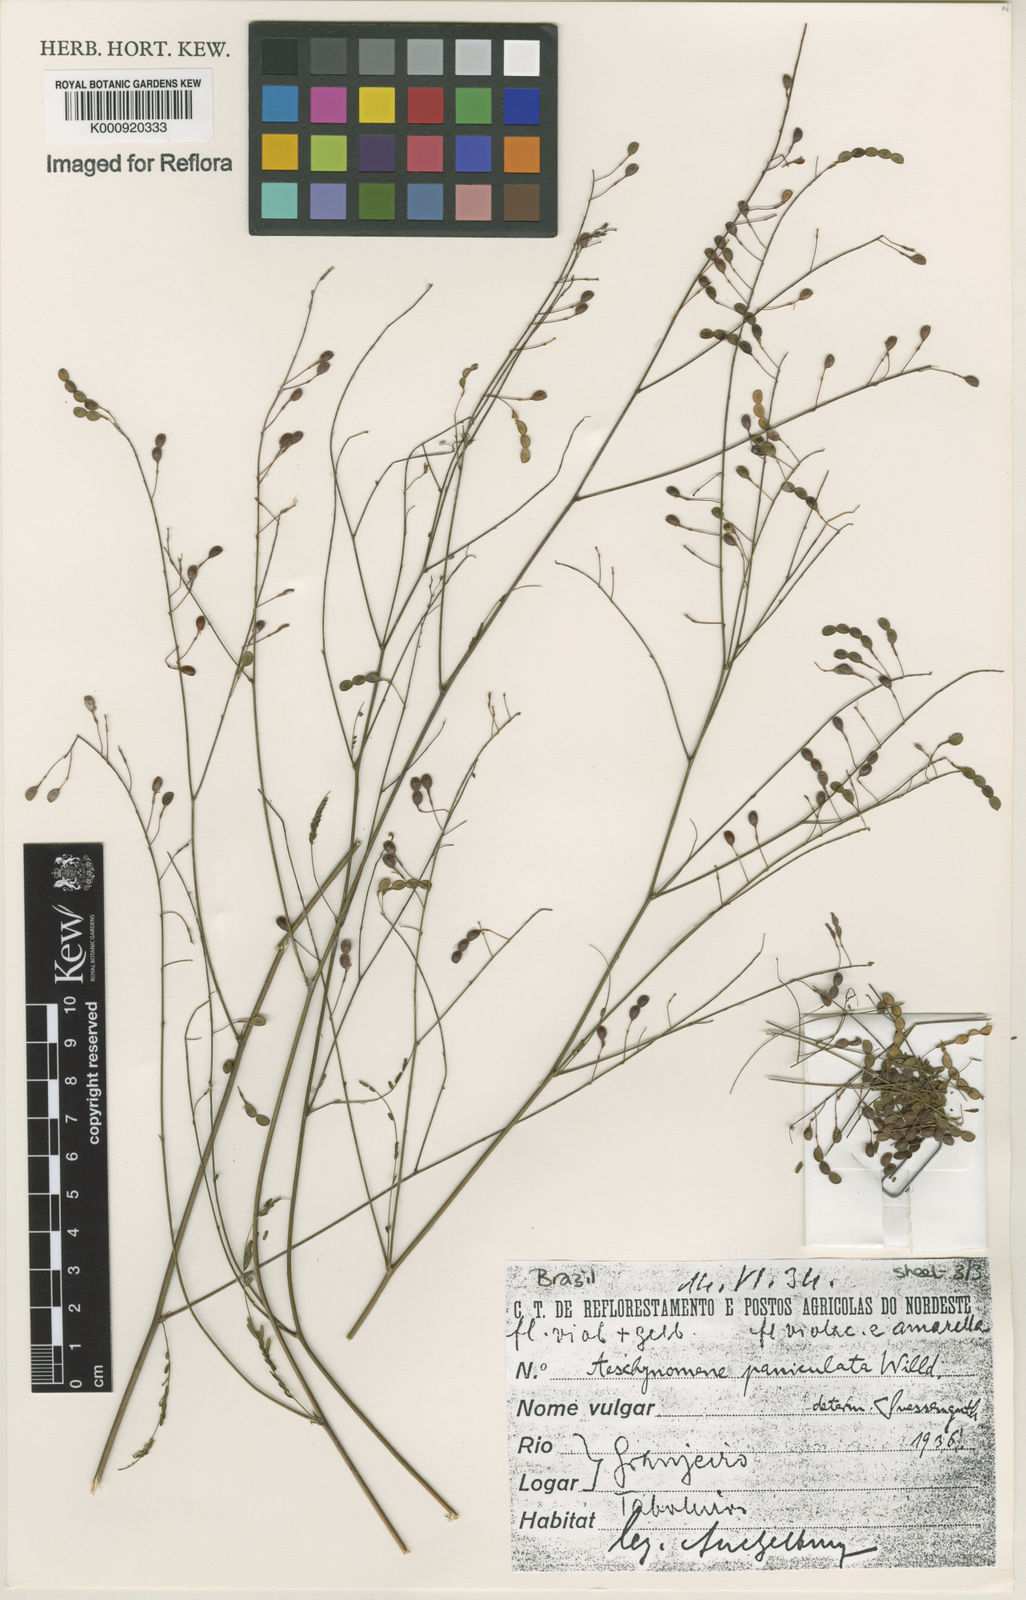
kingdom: Plantae
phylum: Tracheophyta
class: Magnoliopsida
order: Fabales
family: Fabaceae
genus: Ctenodon
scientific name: Ctenodon paniculatus
